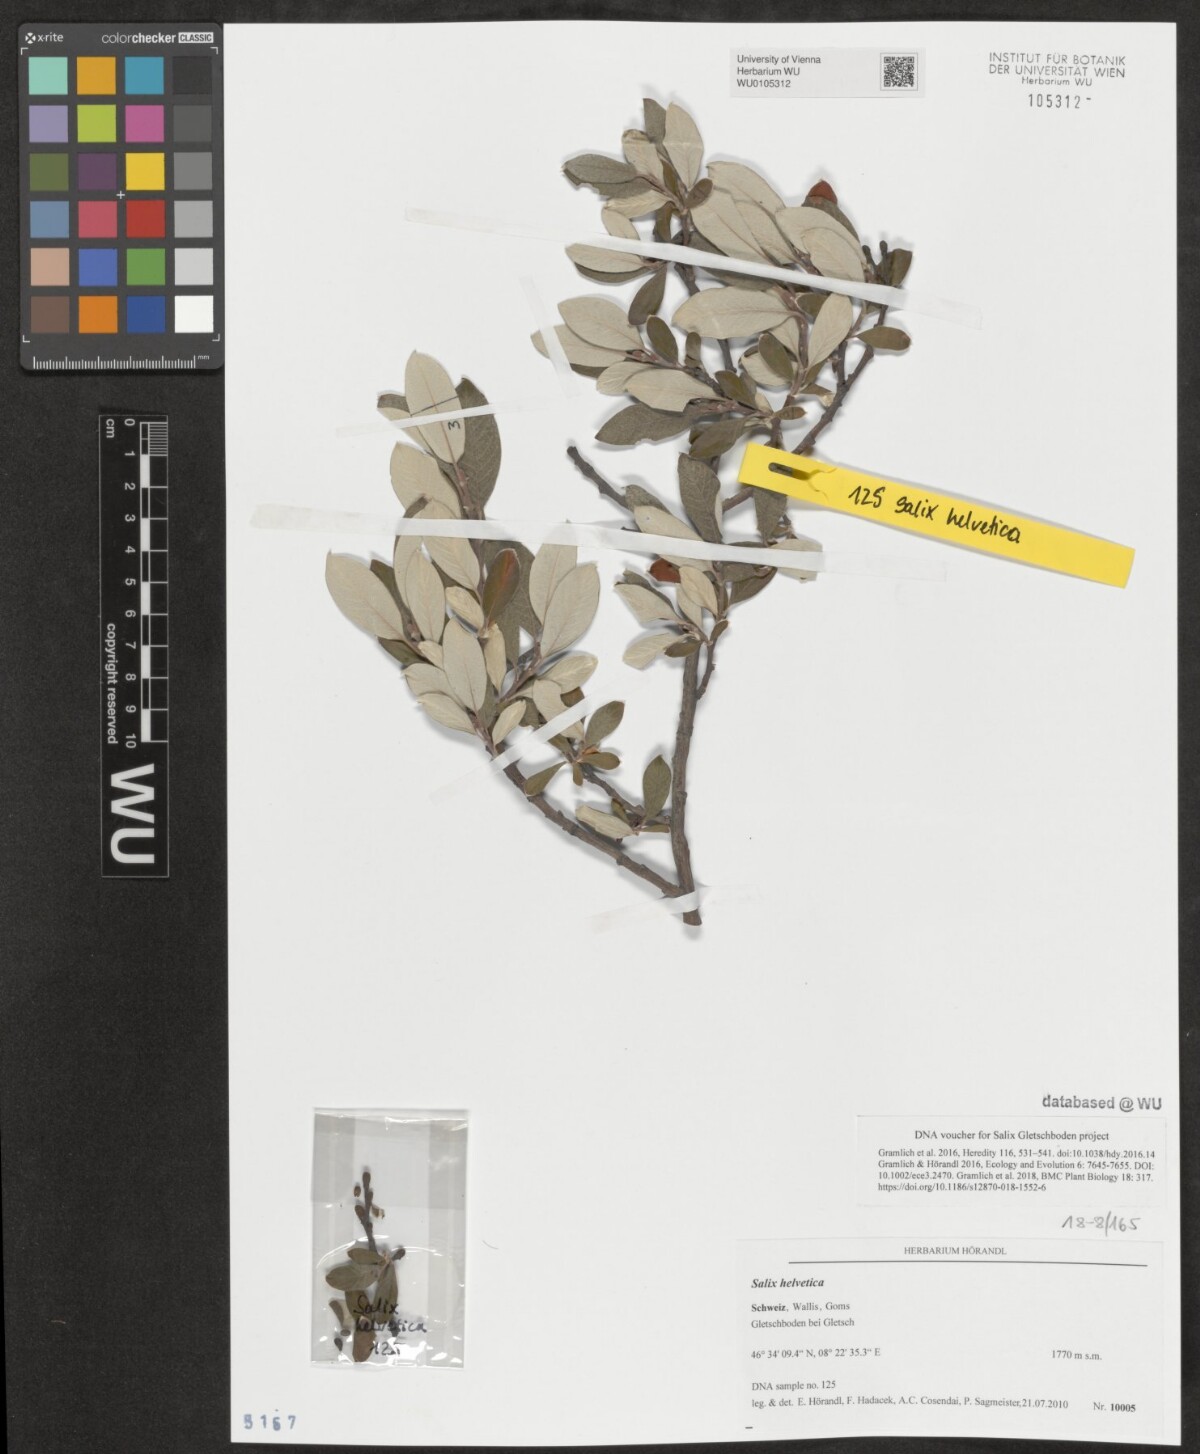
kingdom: Plantae
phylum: Tracheophyta
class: Magnoliopsida
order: Malpighiales
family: Salicaceae
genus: Salix
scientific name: Salix helvetica
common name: Swiss willow
